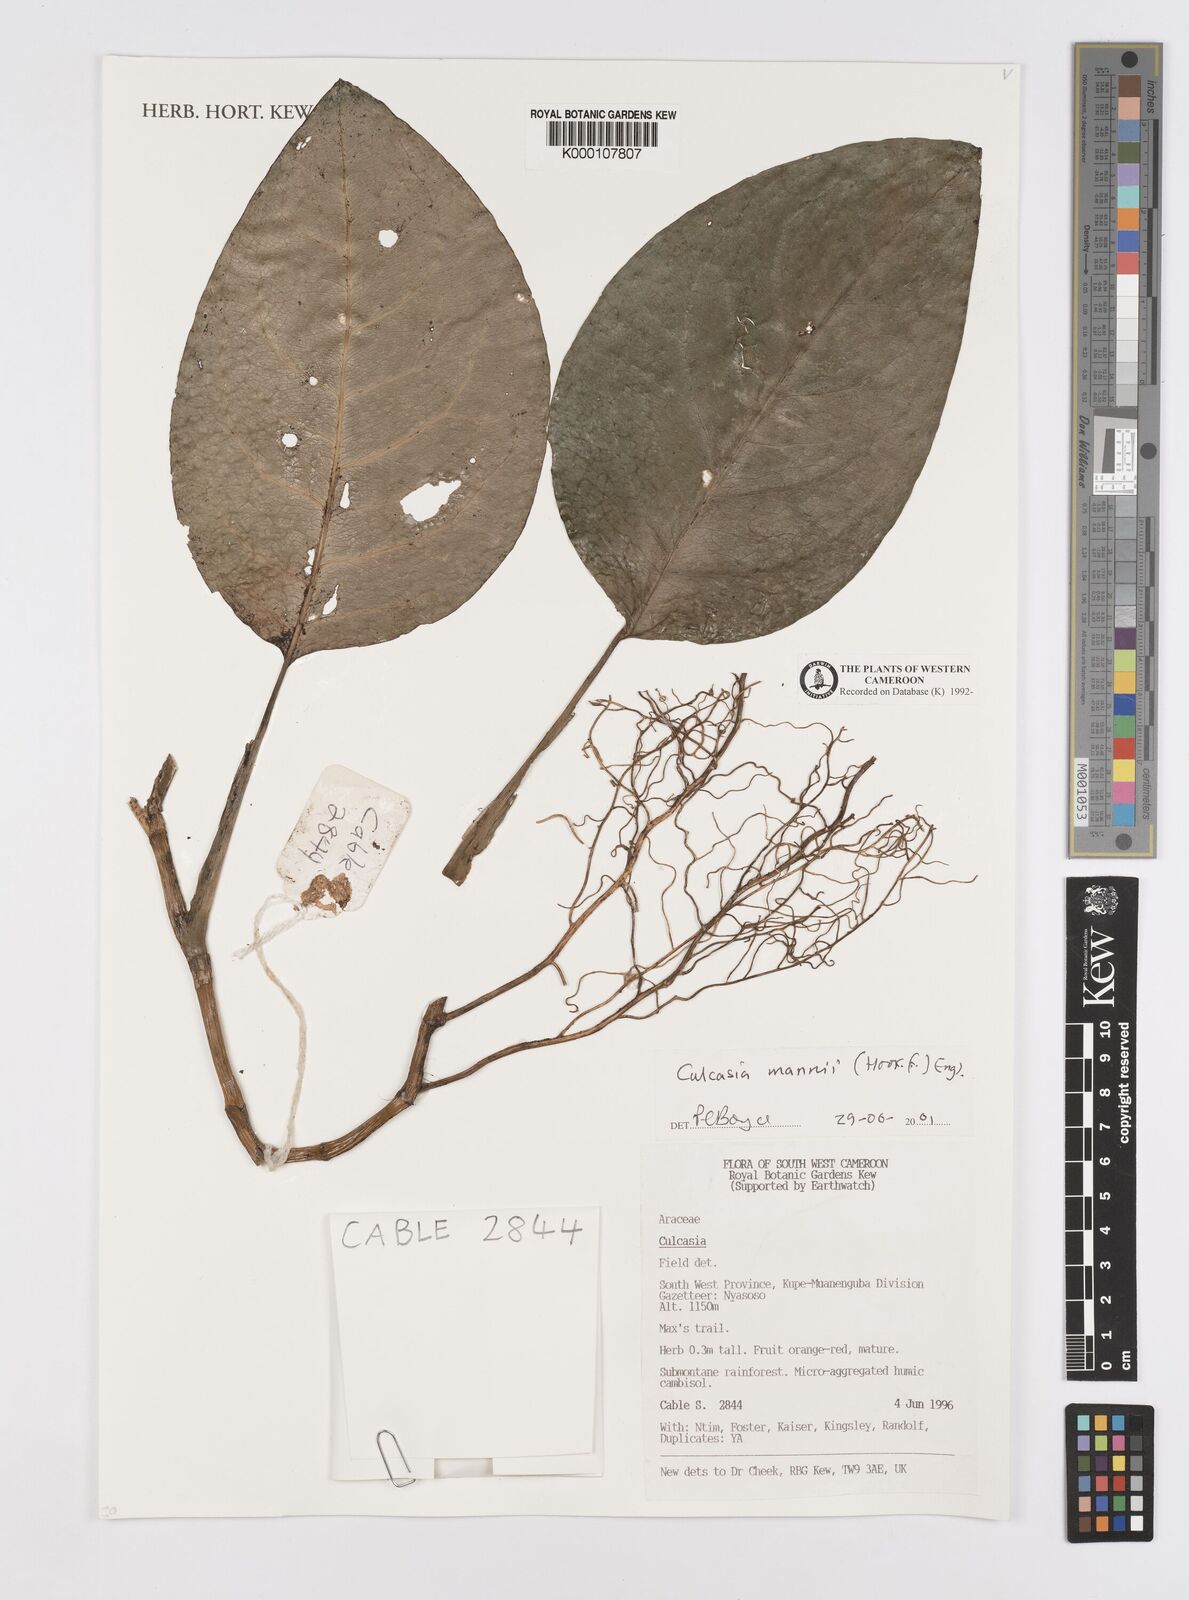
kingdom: Plantae
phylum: Tracheophyta
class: Liliopsida
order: Alismatales
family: Araceae
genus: Culcasia
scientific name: Culcasia mannii
